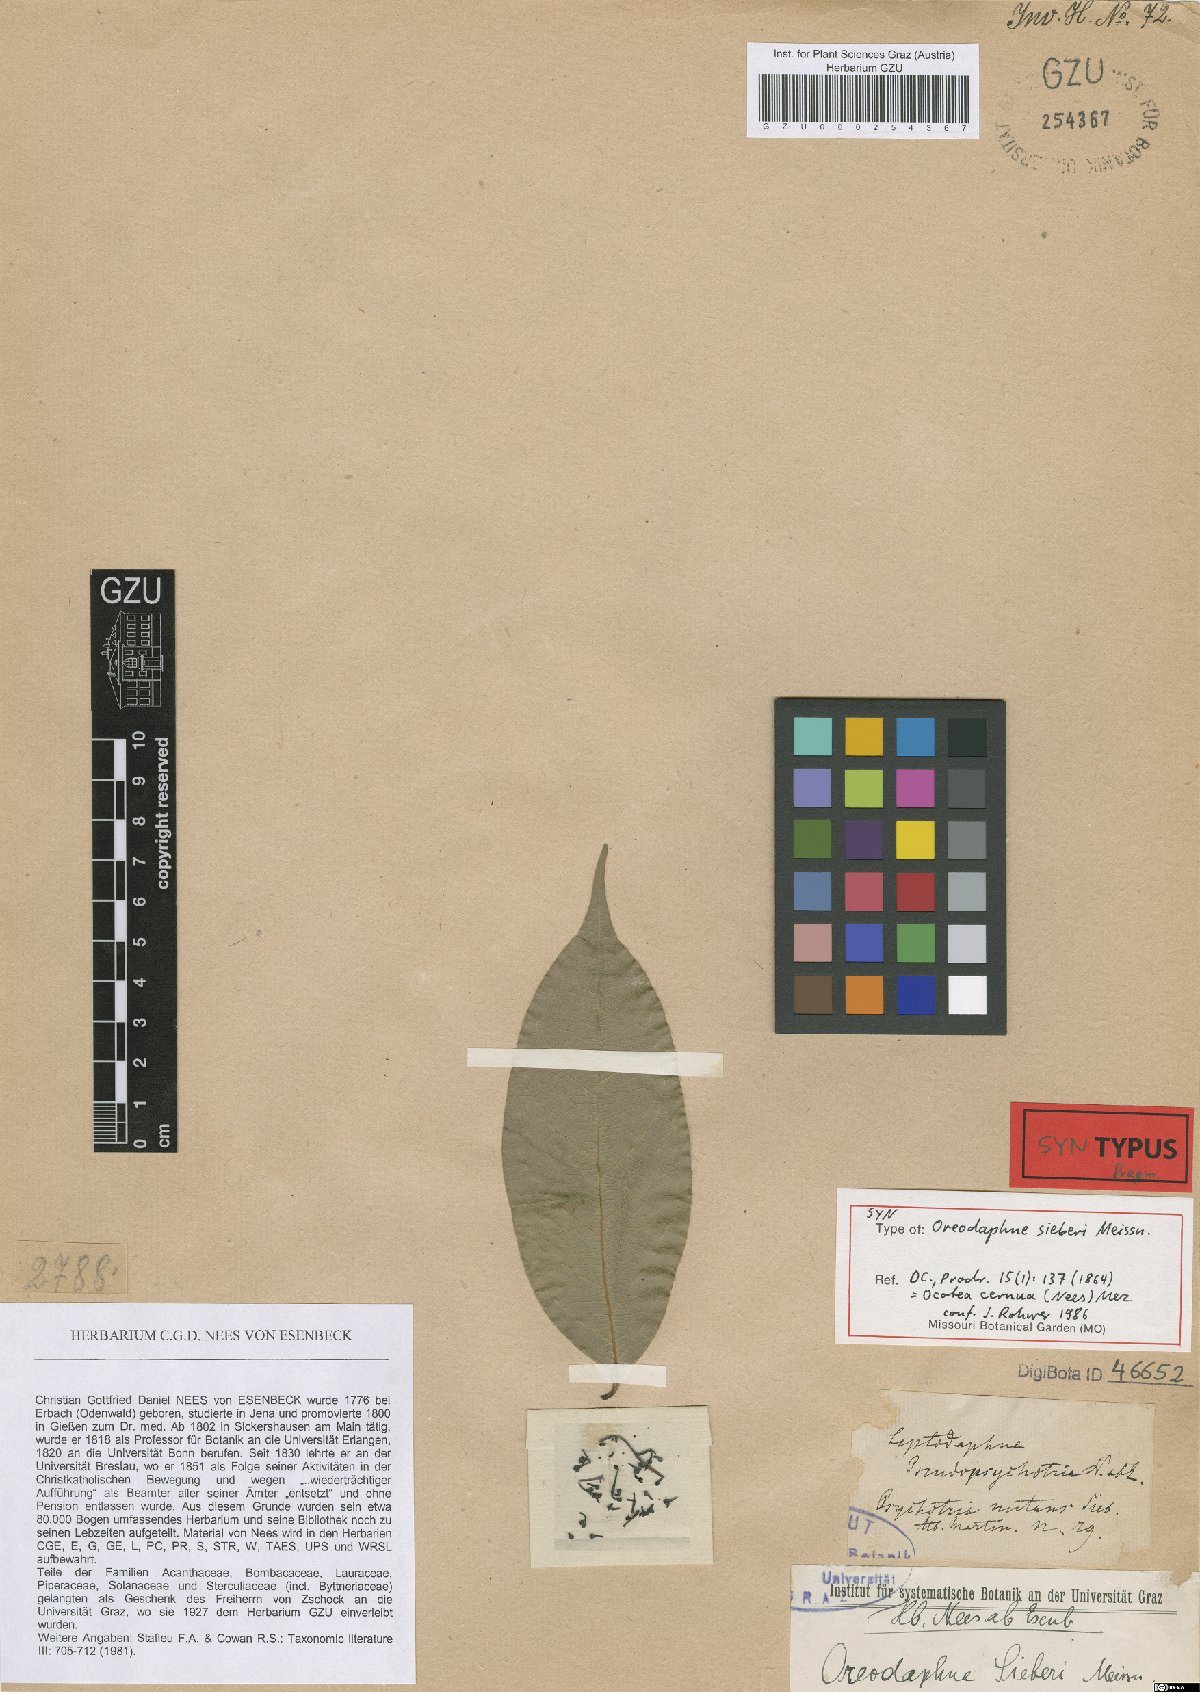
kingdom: Plantae
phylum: Tracheophyta
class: Magnoliopsida
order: Laurales
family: Lauraceae
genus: Ocotea
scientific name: Ocotea leptobotra
